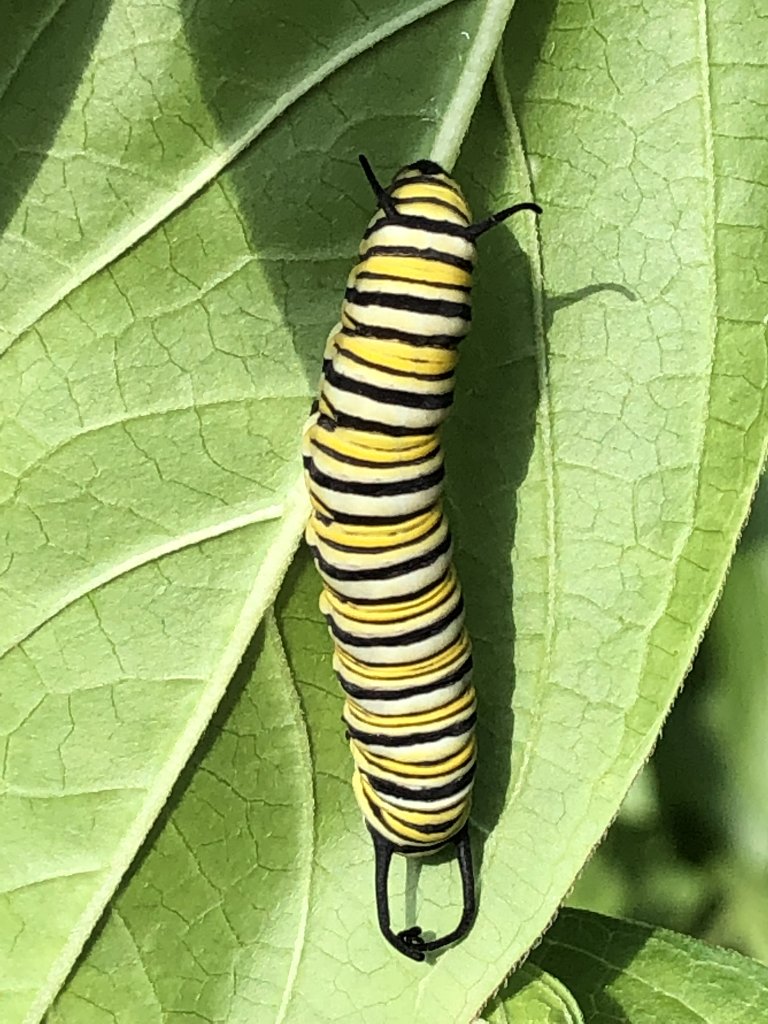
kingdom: Animalia
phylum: Arthropoda
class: Insecta
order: Lepidoptera
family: Nymphalidae
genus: Danaus
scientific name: Danaus plexippus
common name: Monarch
